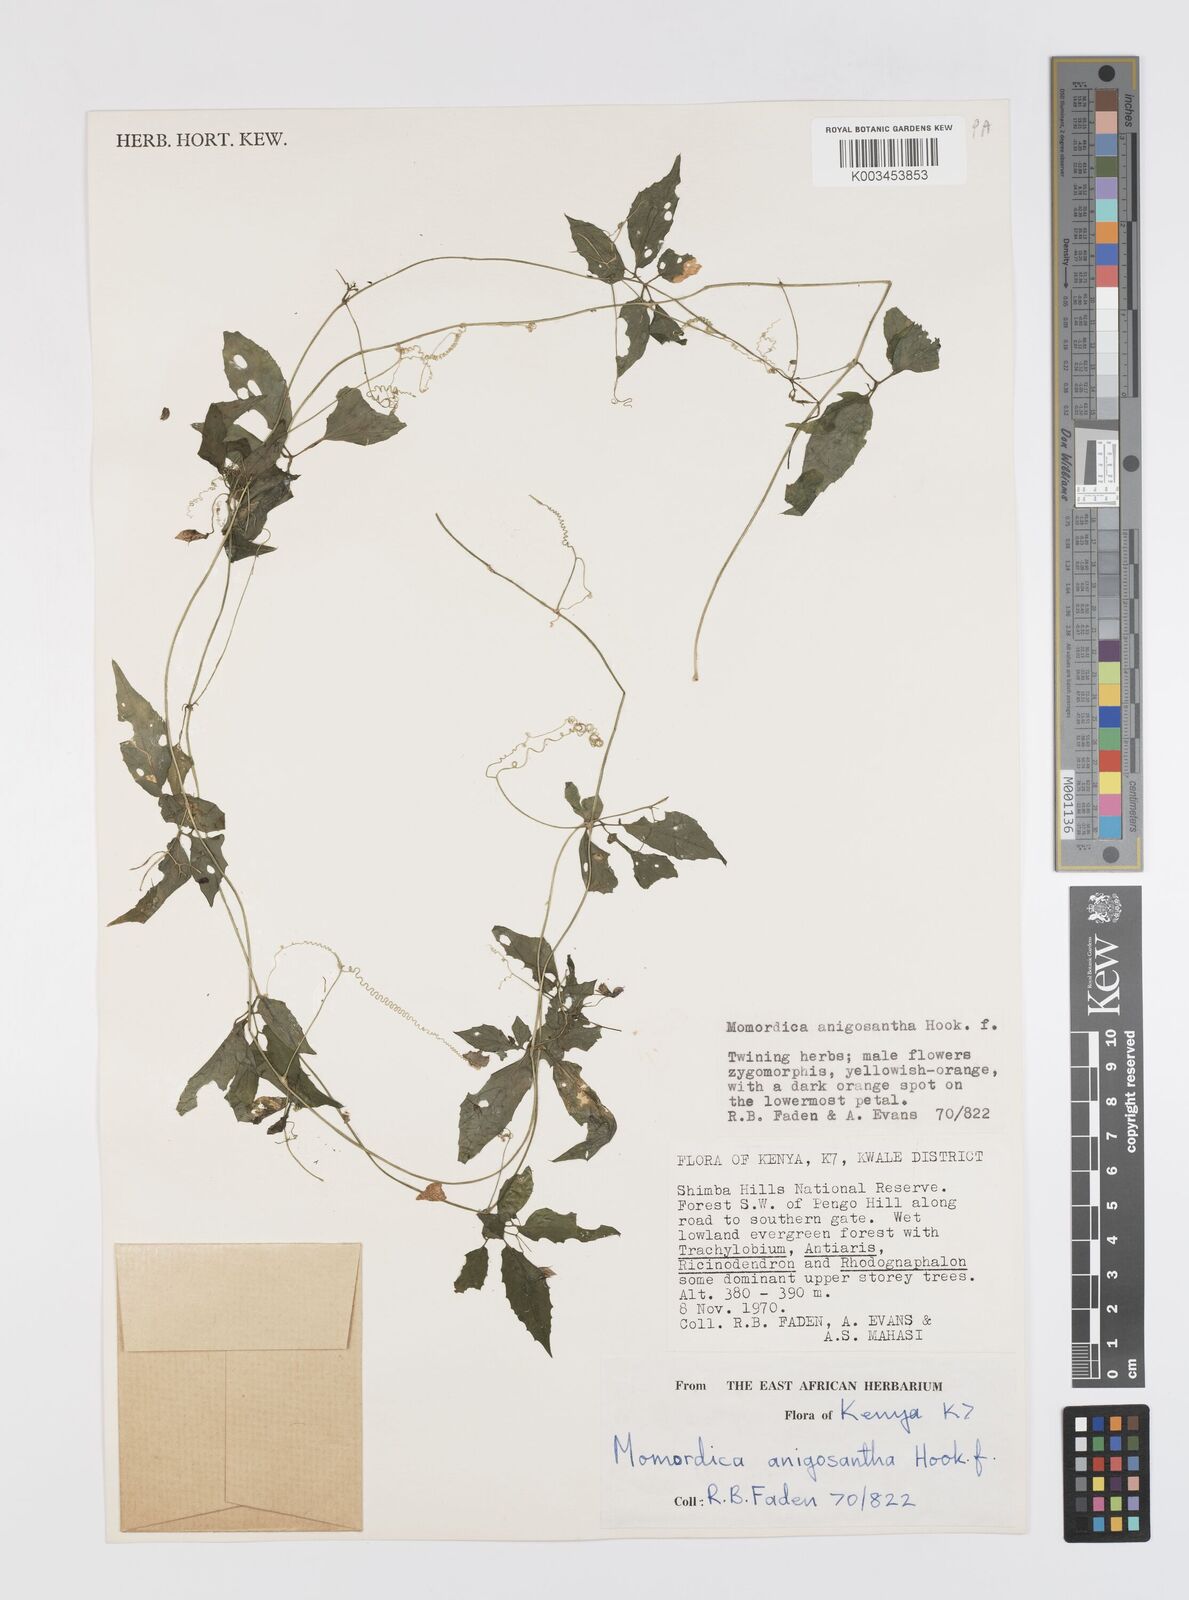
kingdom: Plantae
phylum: Tracheophyta
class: Magnoliopsida
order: Cucurbitales
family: Cucurbitaceae
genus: Momordica
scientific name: Momordica anigosantha
